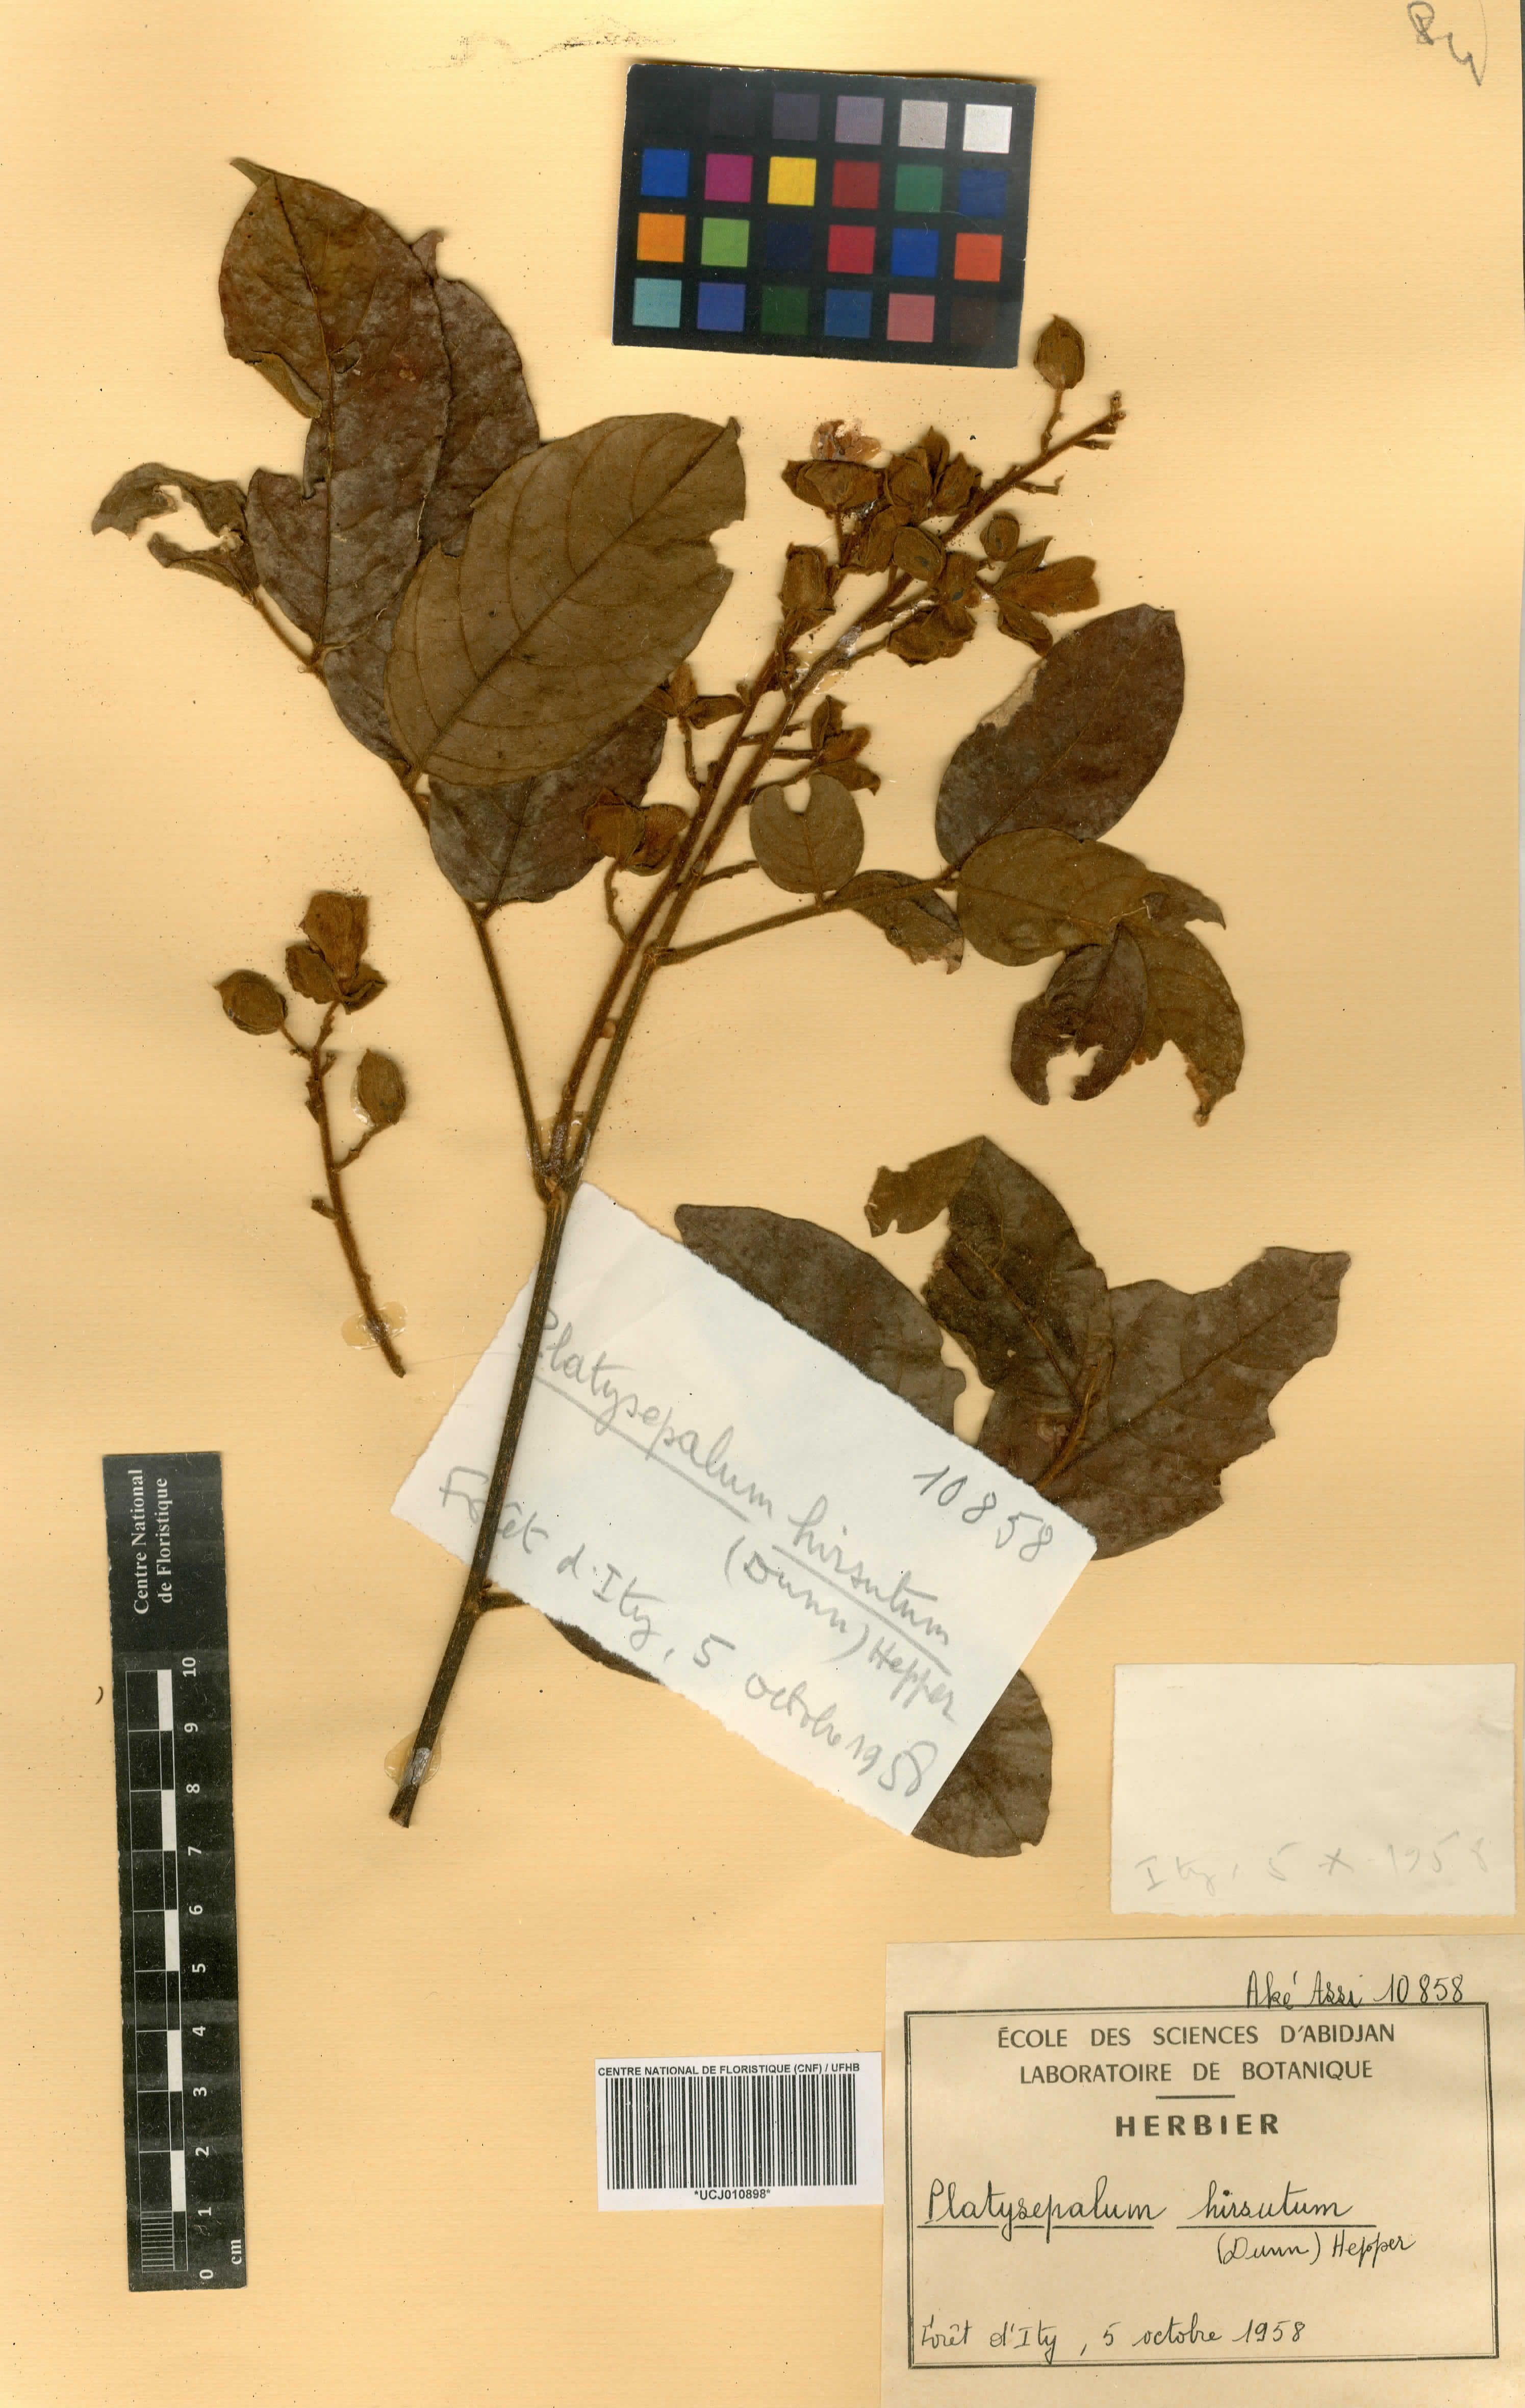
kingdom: Plantae
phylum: Tracheophyta
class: Magnoliopsida
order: Fabales
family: Fabaceae
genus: Platysepalum
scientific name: Platysepalum hirsutum
